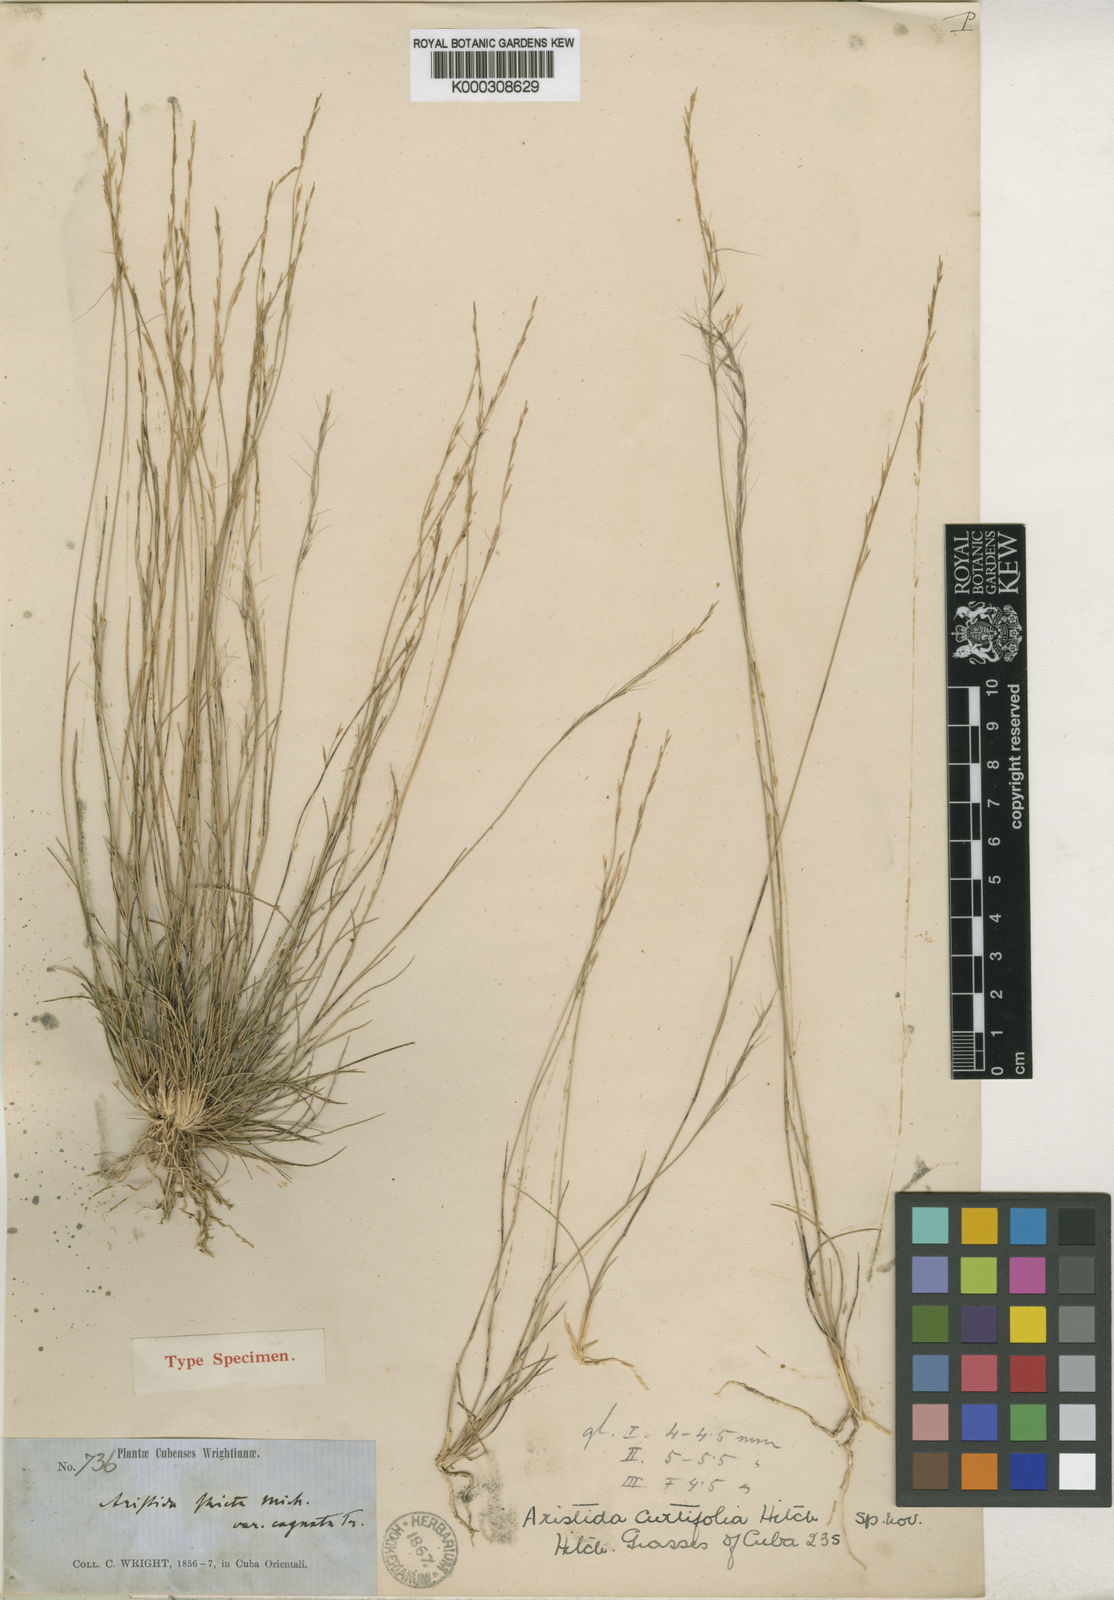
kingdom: Plantae
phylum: Tracheophyta
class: Liliopsida
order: Poales
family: Poaceae
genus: Aristida
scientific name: Aristida curtifolia
